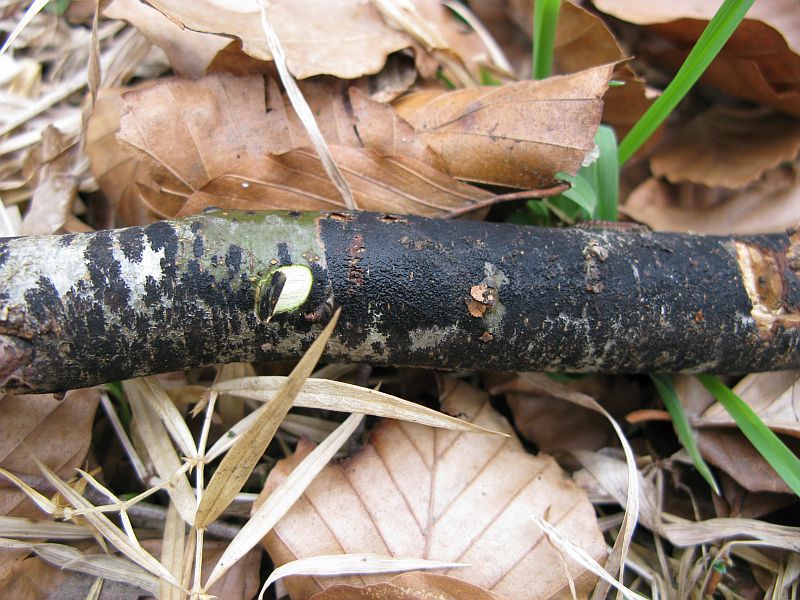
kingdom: Fungi
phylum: Ascomycota
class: Leotiomycetes
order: Rhytismatales
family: Ascodichaenaceae
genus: Ascodichaena
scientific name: Ascodichaena rugosa
